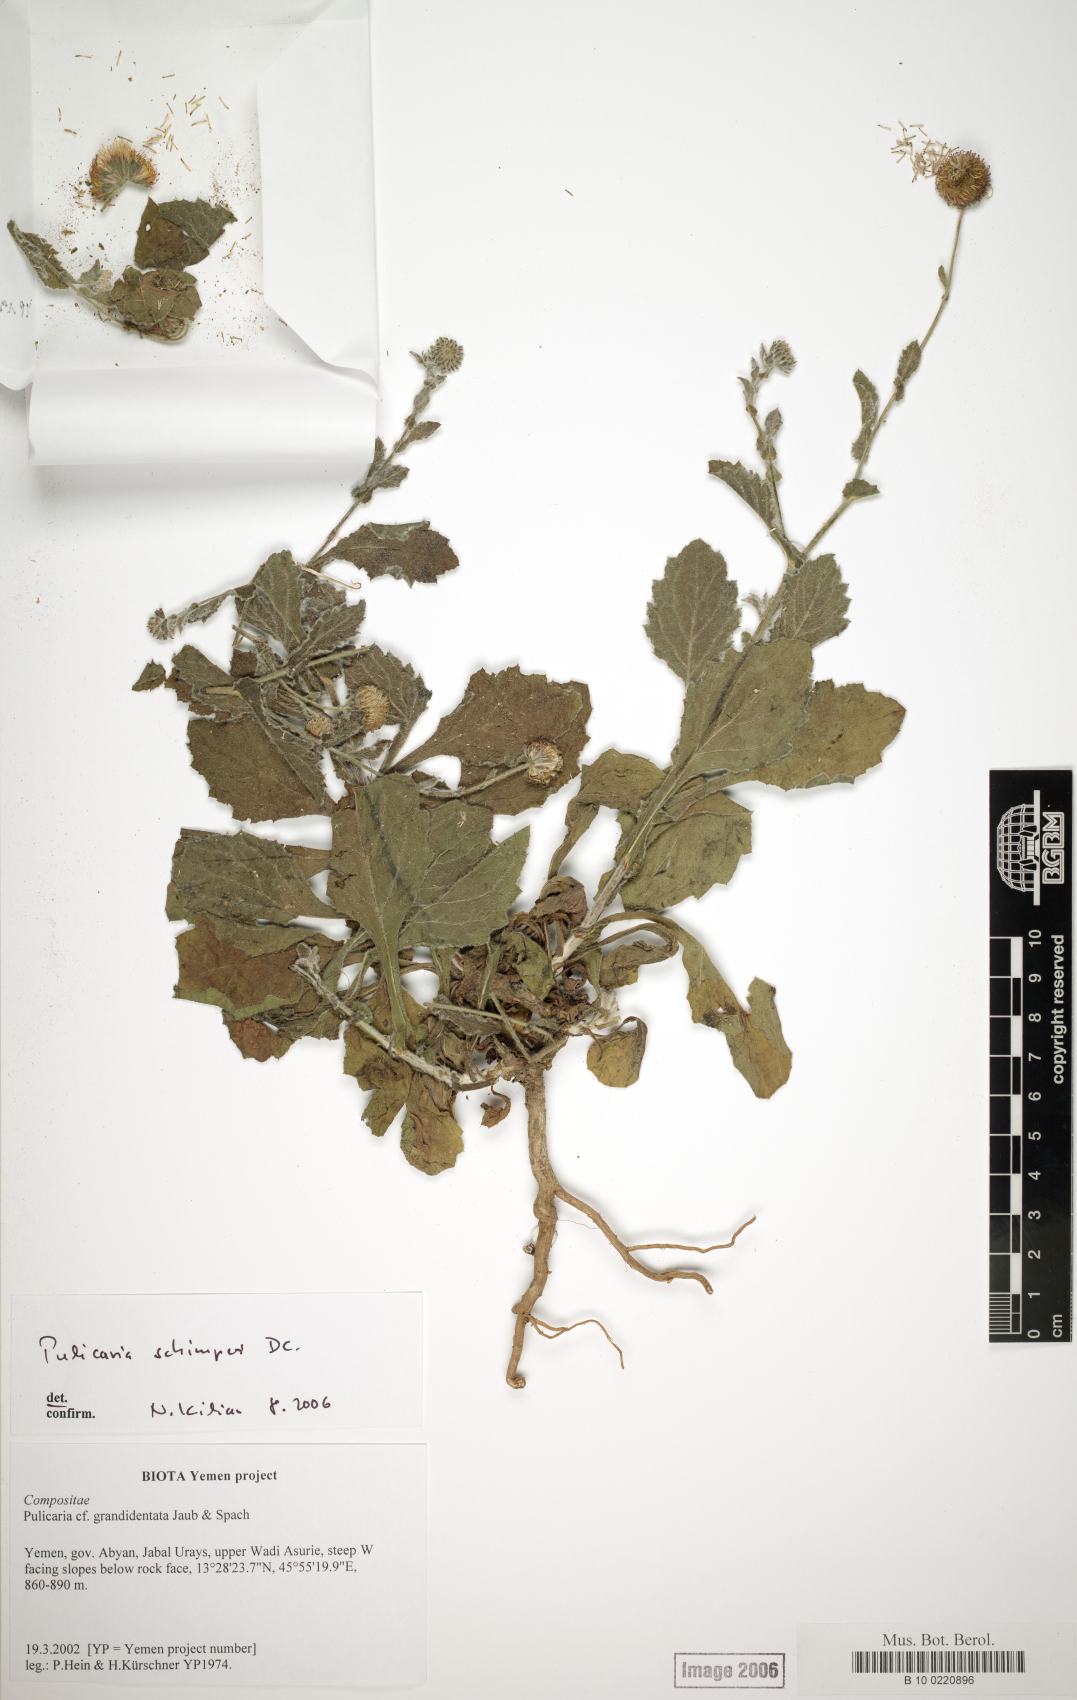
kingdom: Plantae
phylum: Tracheophyta
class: Magnoliopsida
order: Asterales
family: Asteraceae
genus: Pulicaria
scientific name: Pulicaria schimperi
